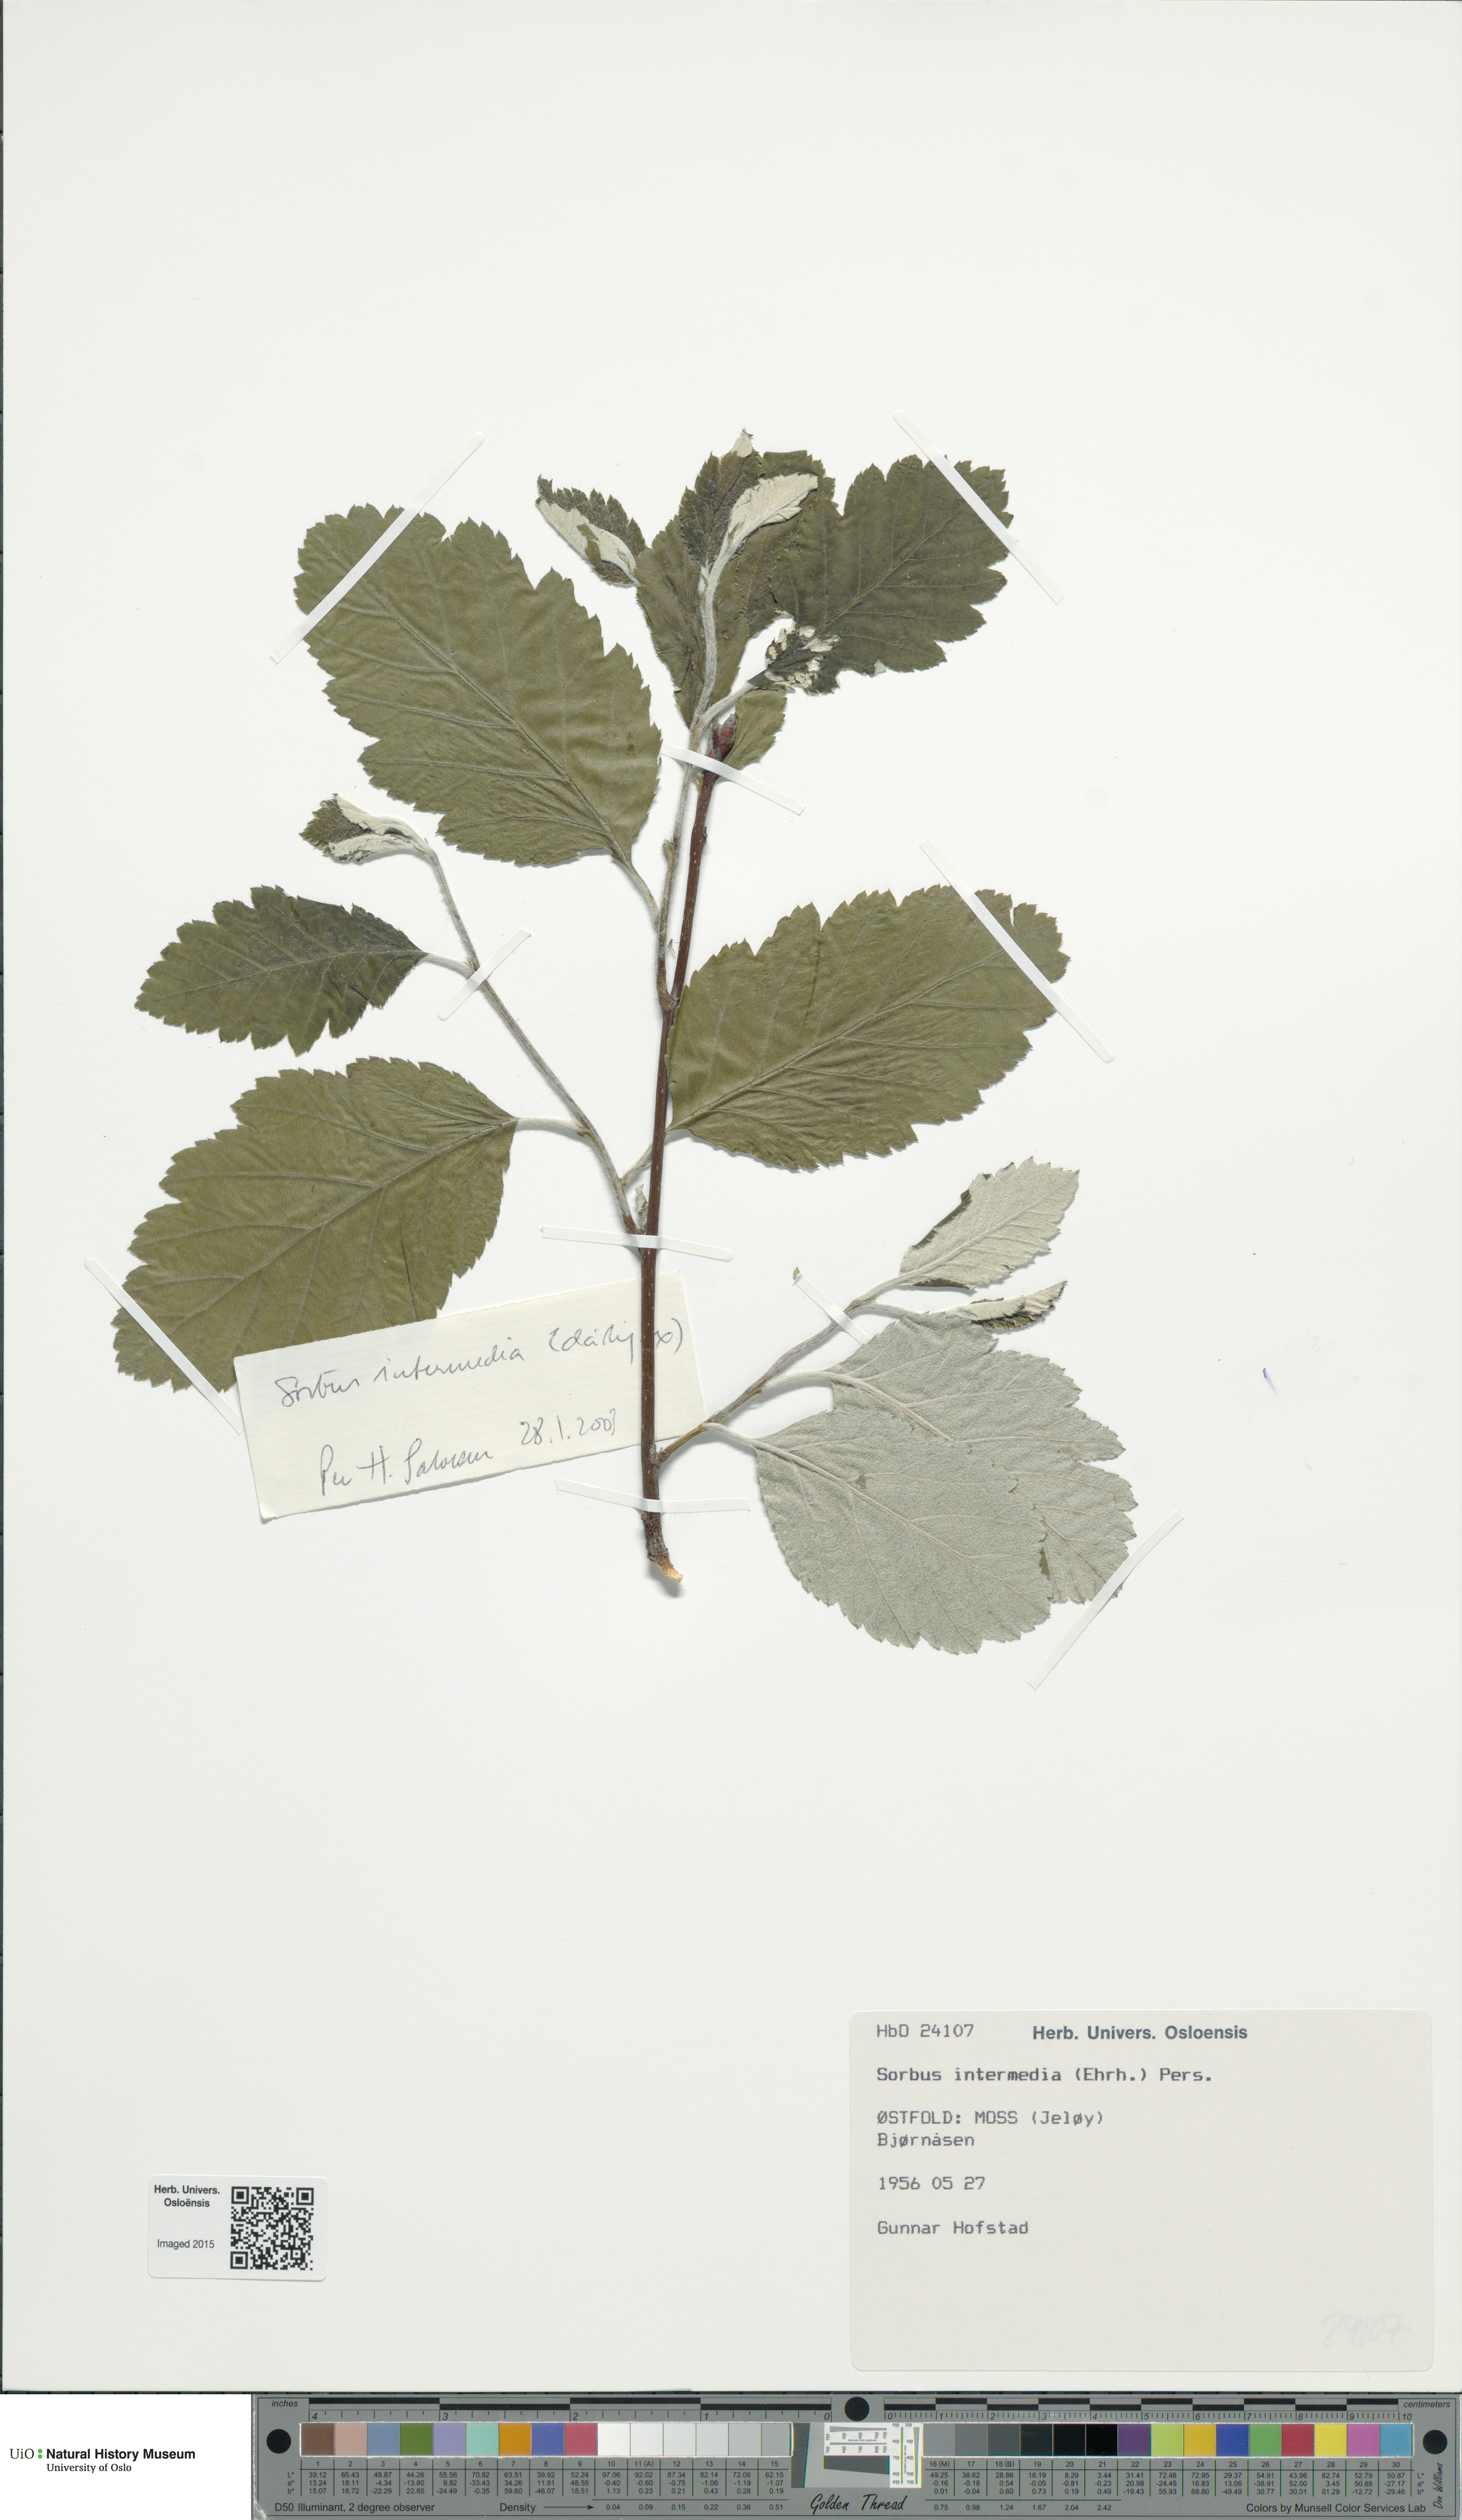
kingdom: Plantae
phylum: Tracheophyta
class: Magnoliopsida
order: Rosales
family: Rosaceae
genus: Scandosorbus
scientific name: Scandosorbus intermedia
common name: Swedish whitebeam
